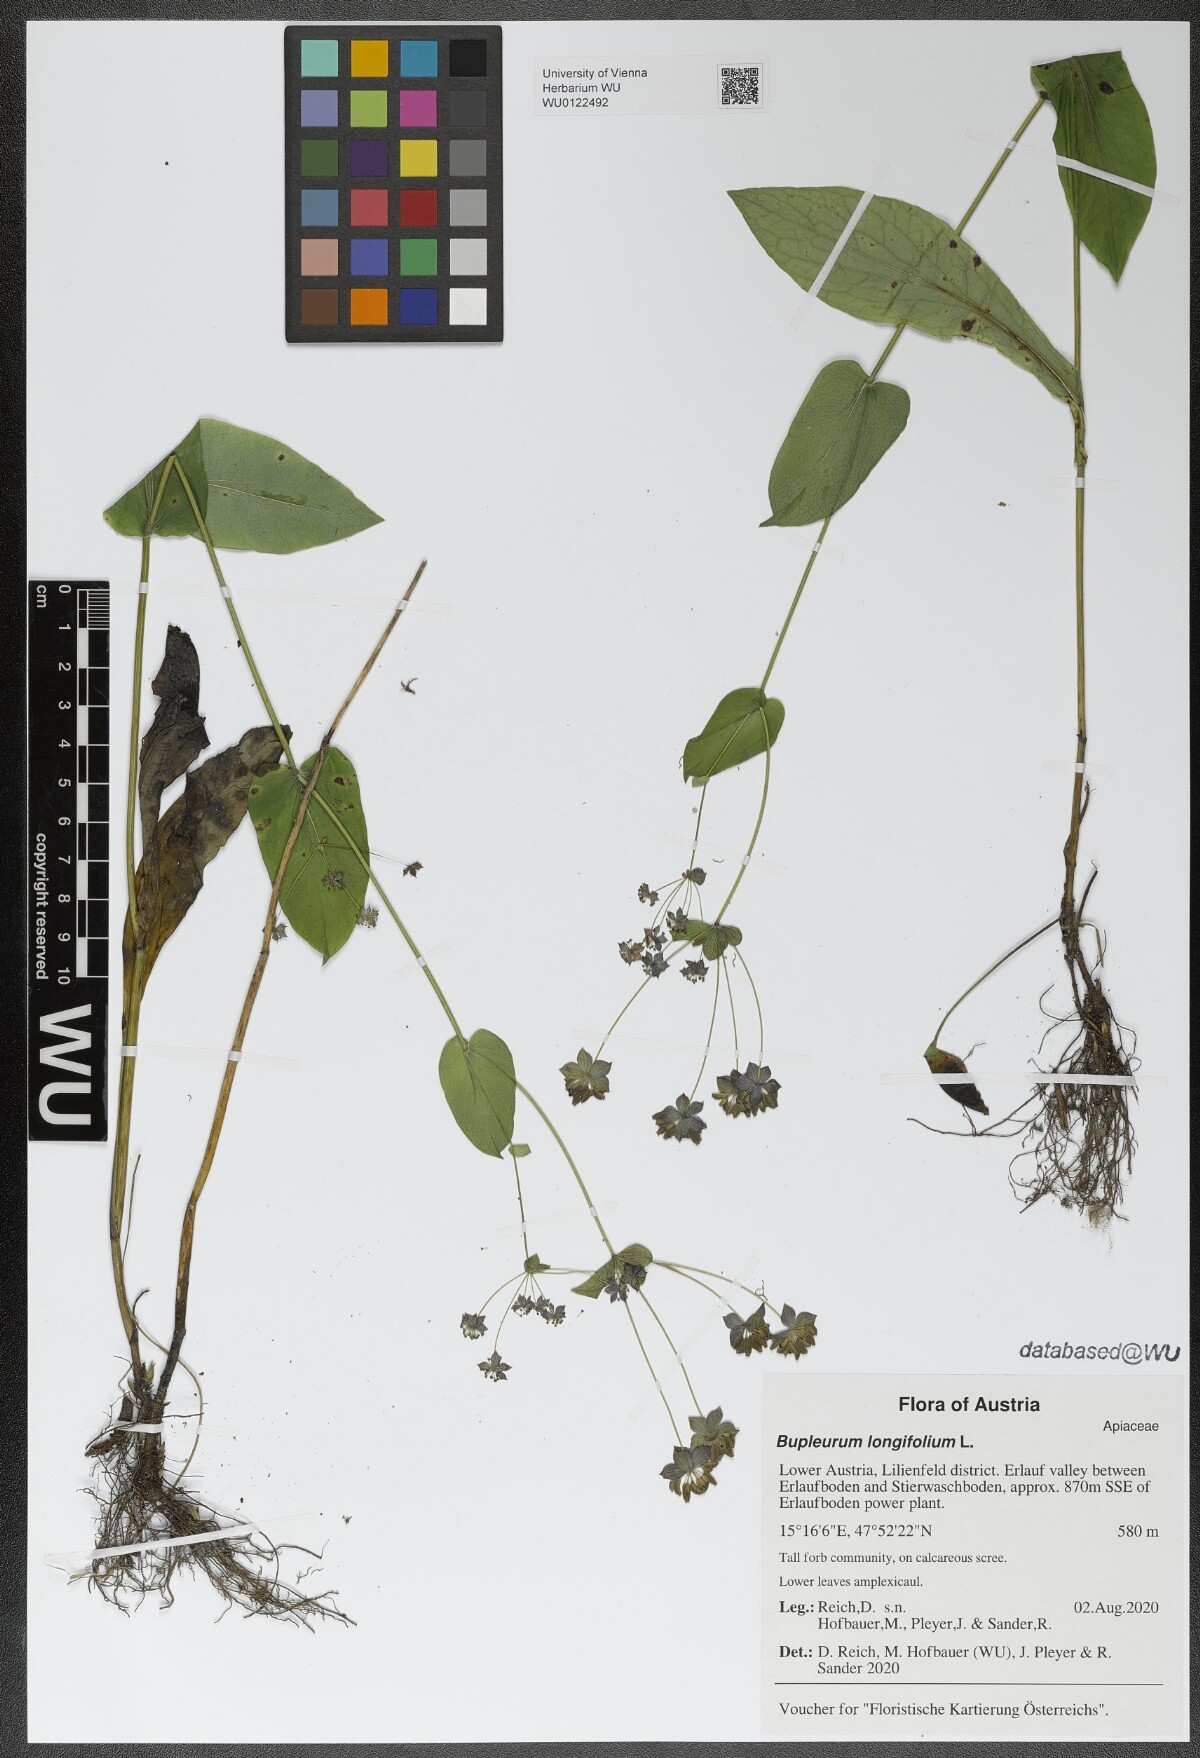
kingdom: Plantae
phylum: Tracheophyta
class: Magnoliopsida
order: Apiales
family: Apiaceae
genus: Bupleurum
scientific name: Bupleurum longifolium
